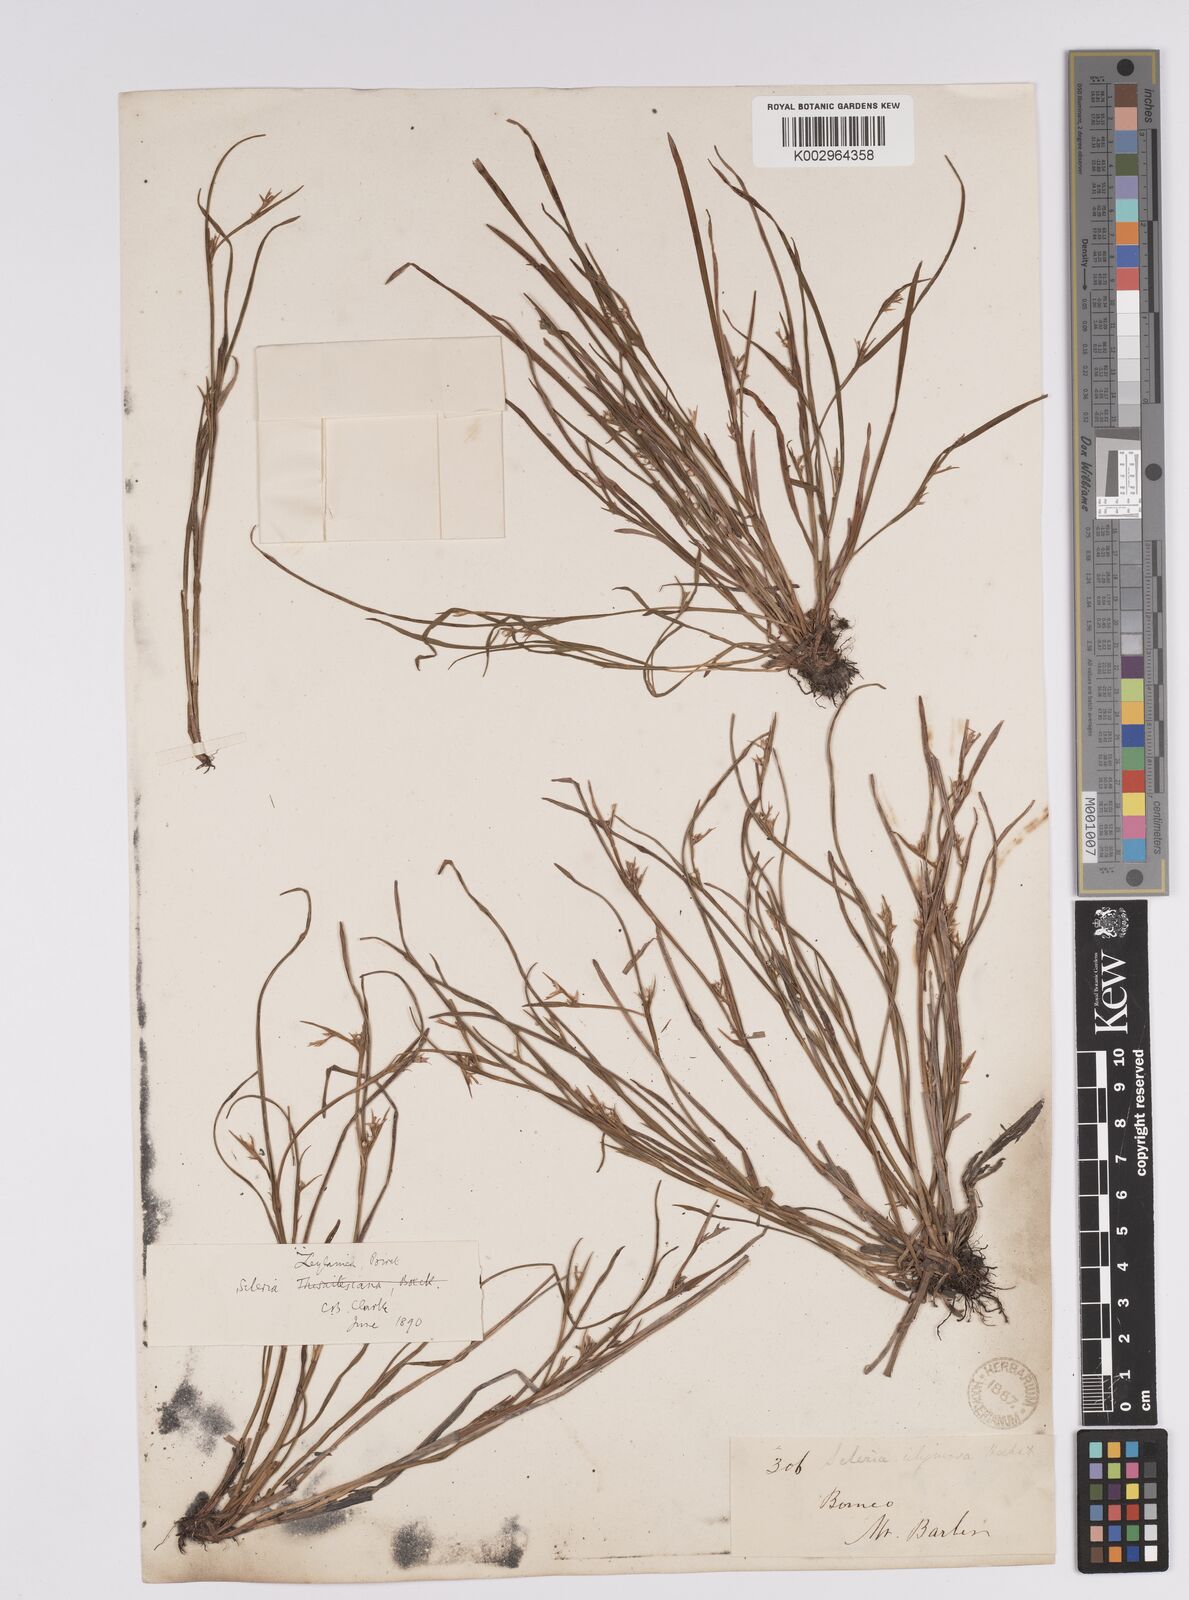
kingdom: Plantae
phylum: Tracheophyta
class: Liliopsida
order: Poales
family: Cyperaceae
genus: Scleria
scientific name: Scleria levis
